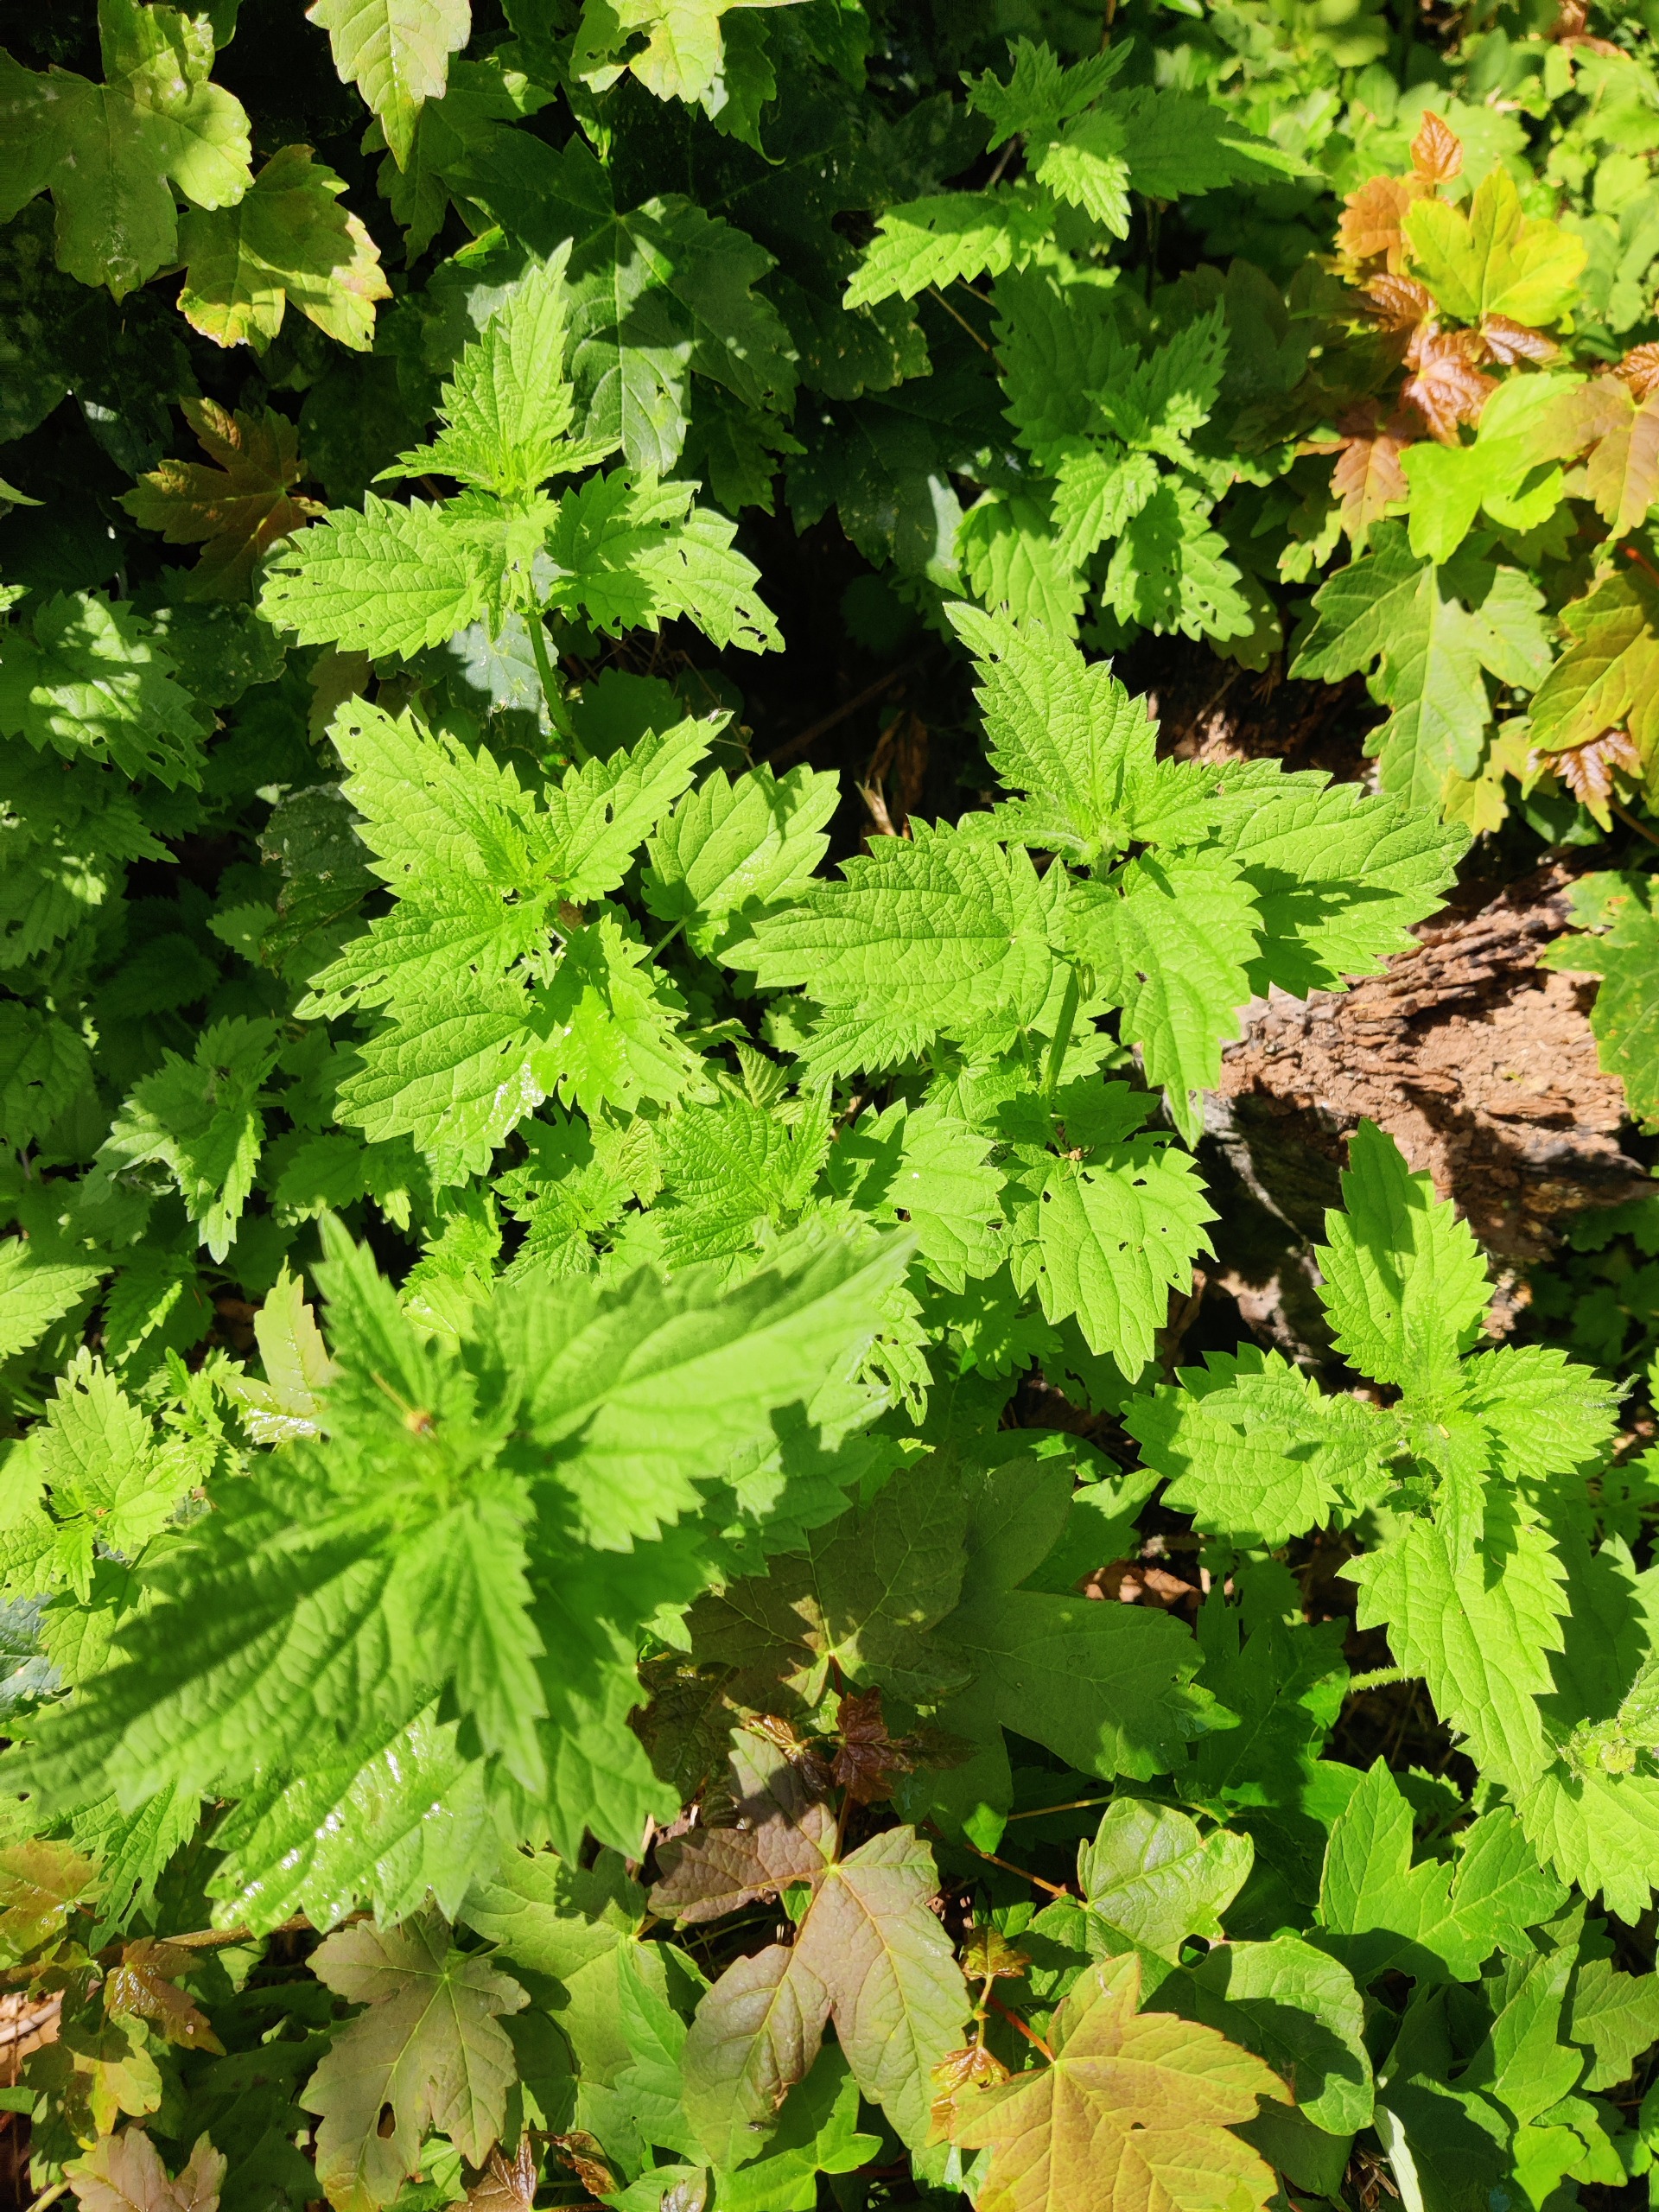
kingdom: Plantae
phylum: Tracheophyta
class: Magnoliopsida
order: Rosales
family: Urticaceae
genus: Urtica
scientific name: Urtica dioica
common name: Stor nælde
